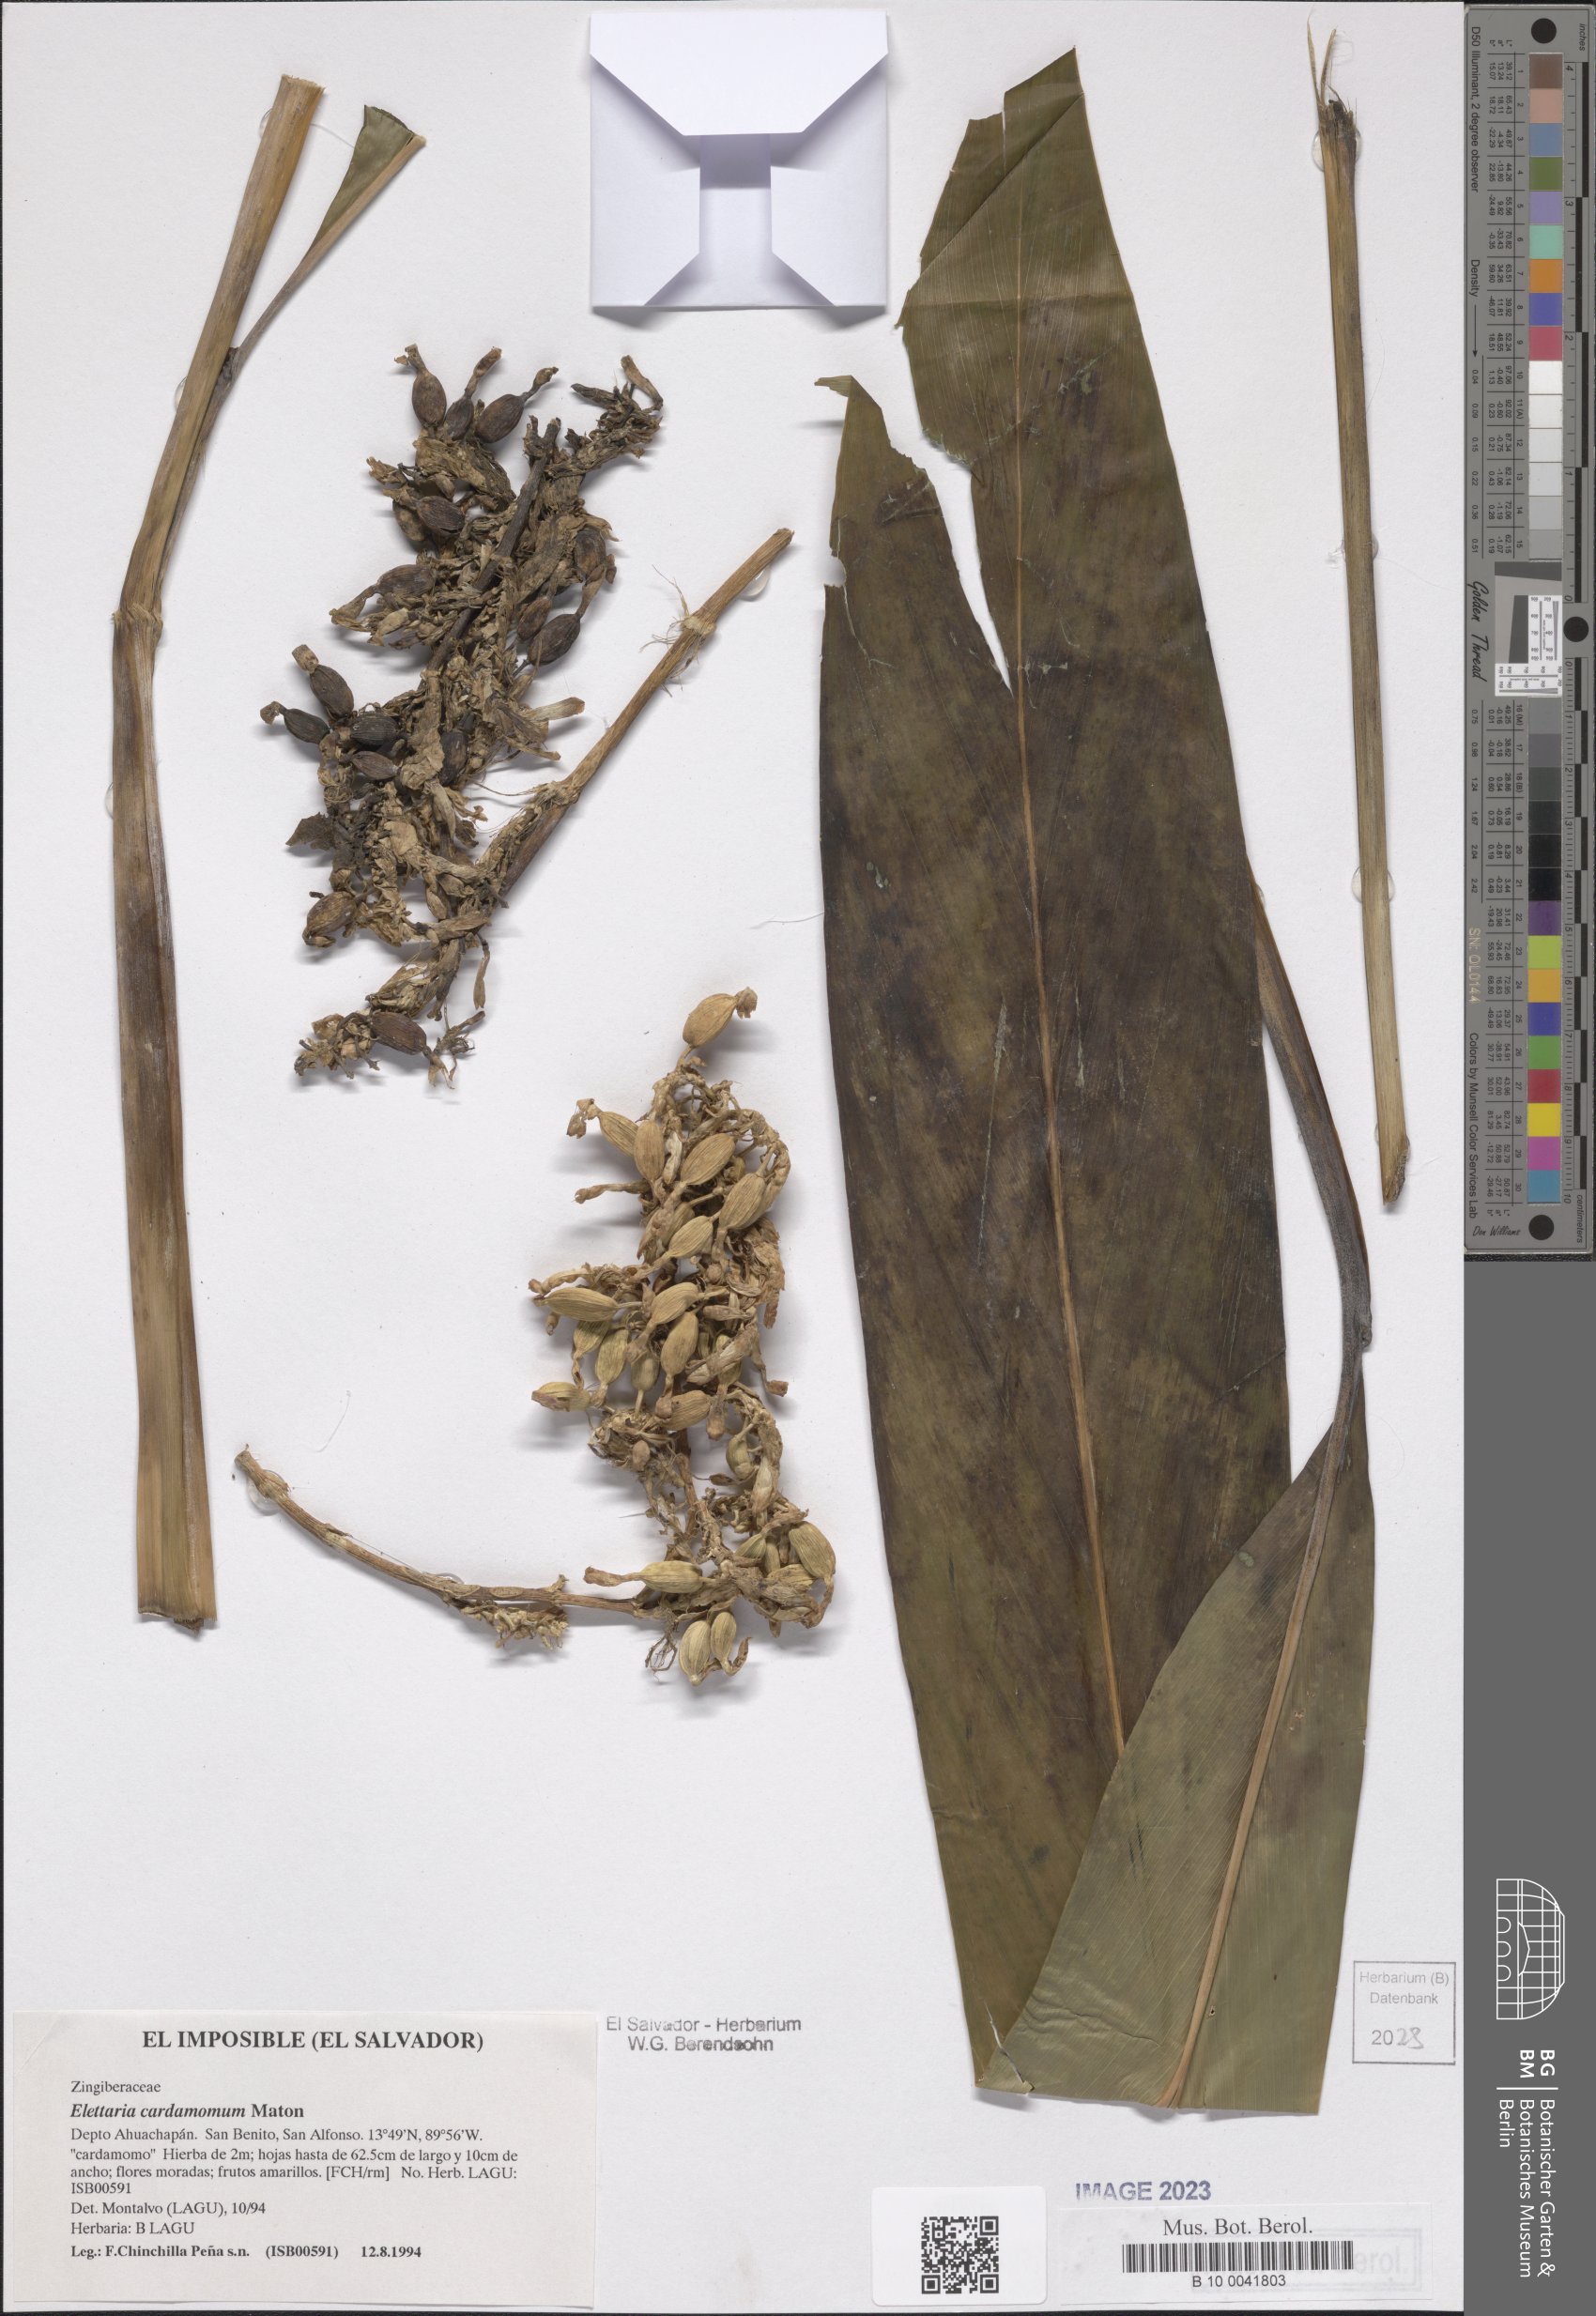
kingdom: Plantae
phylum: Tracheophyta
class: Liliopsida
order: Zingiberales
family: Zingiberaceae
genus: Elettaria
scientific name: Elettaria cardamomum
